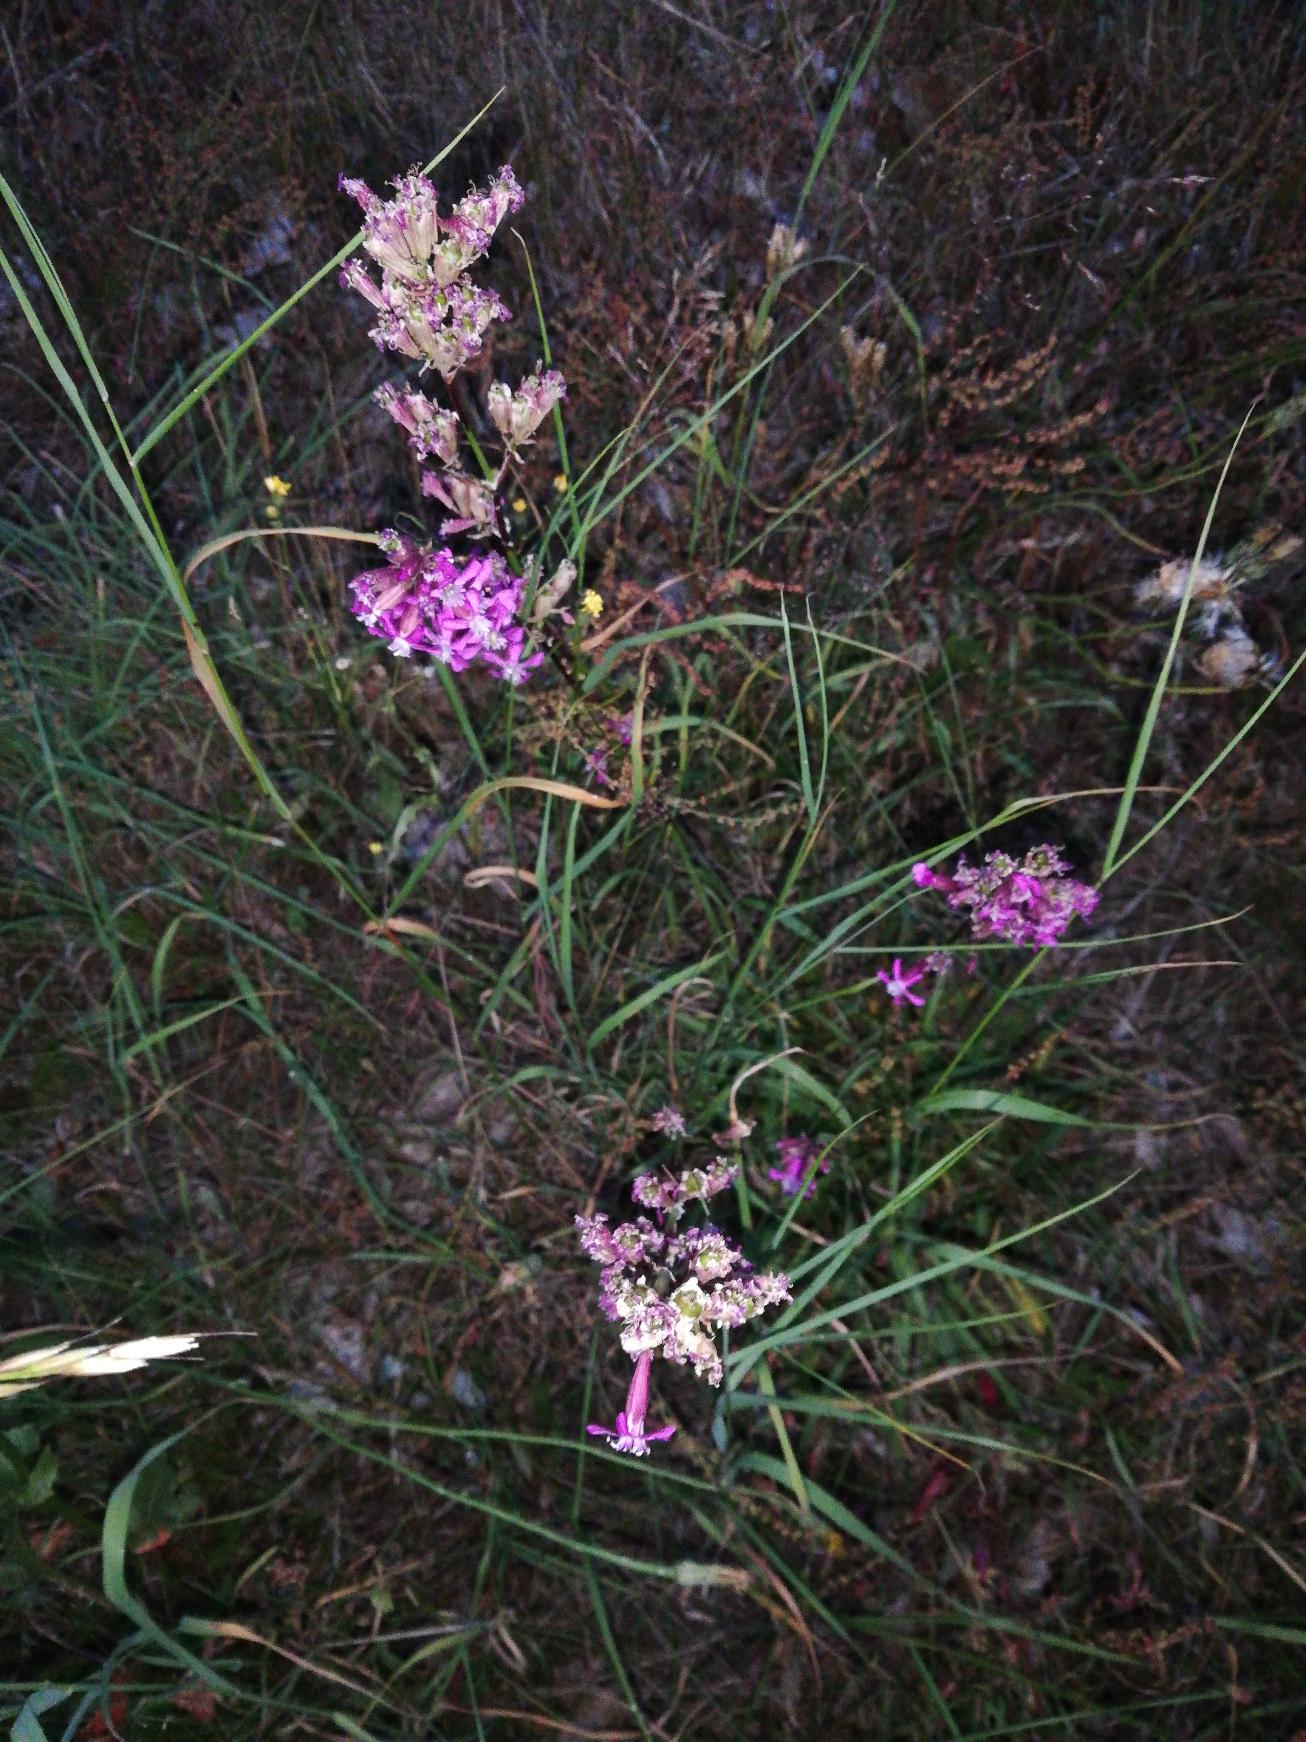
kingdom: Plantae
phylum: Tracheophyta
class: Magnoliopsida
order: Caryophyllales
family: Caryophyllaceae
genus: Viscaria
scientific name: Viscaria vulgaris
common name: Tjærenellike
